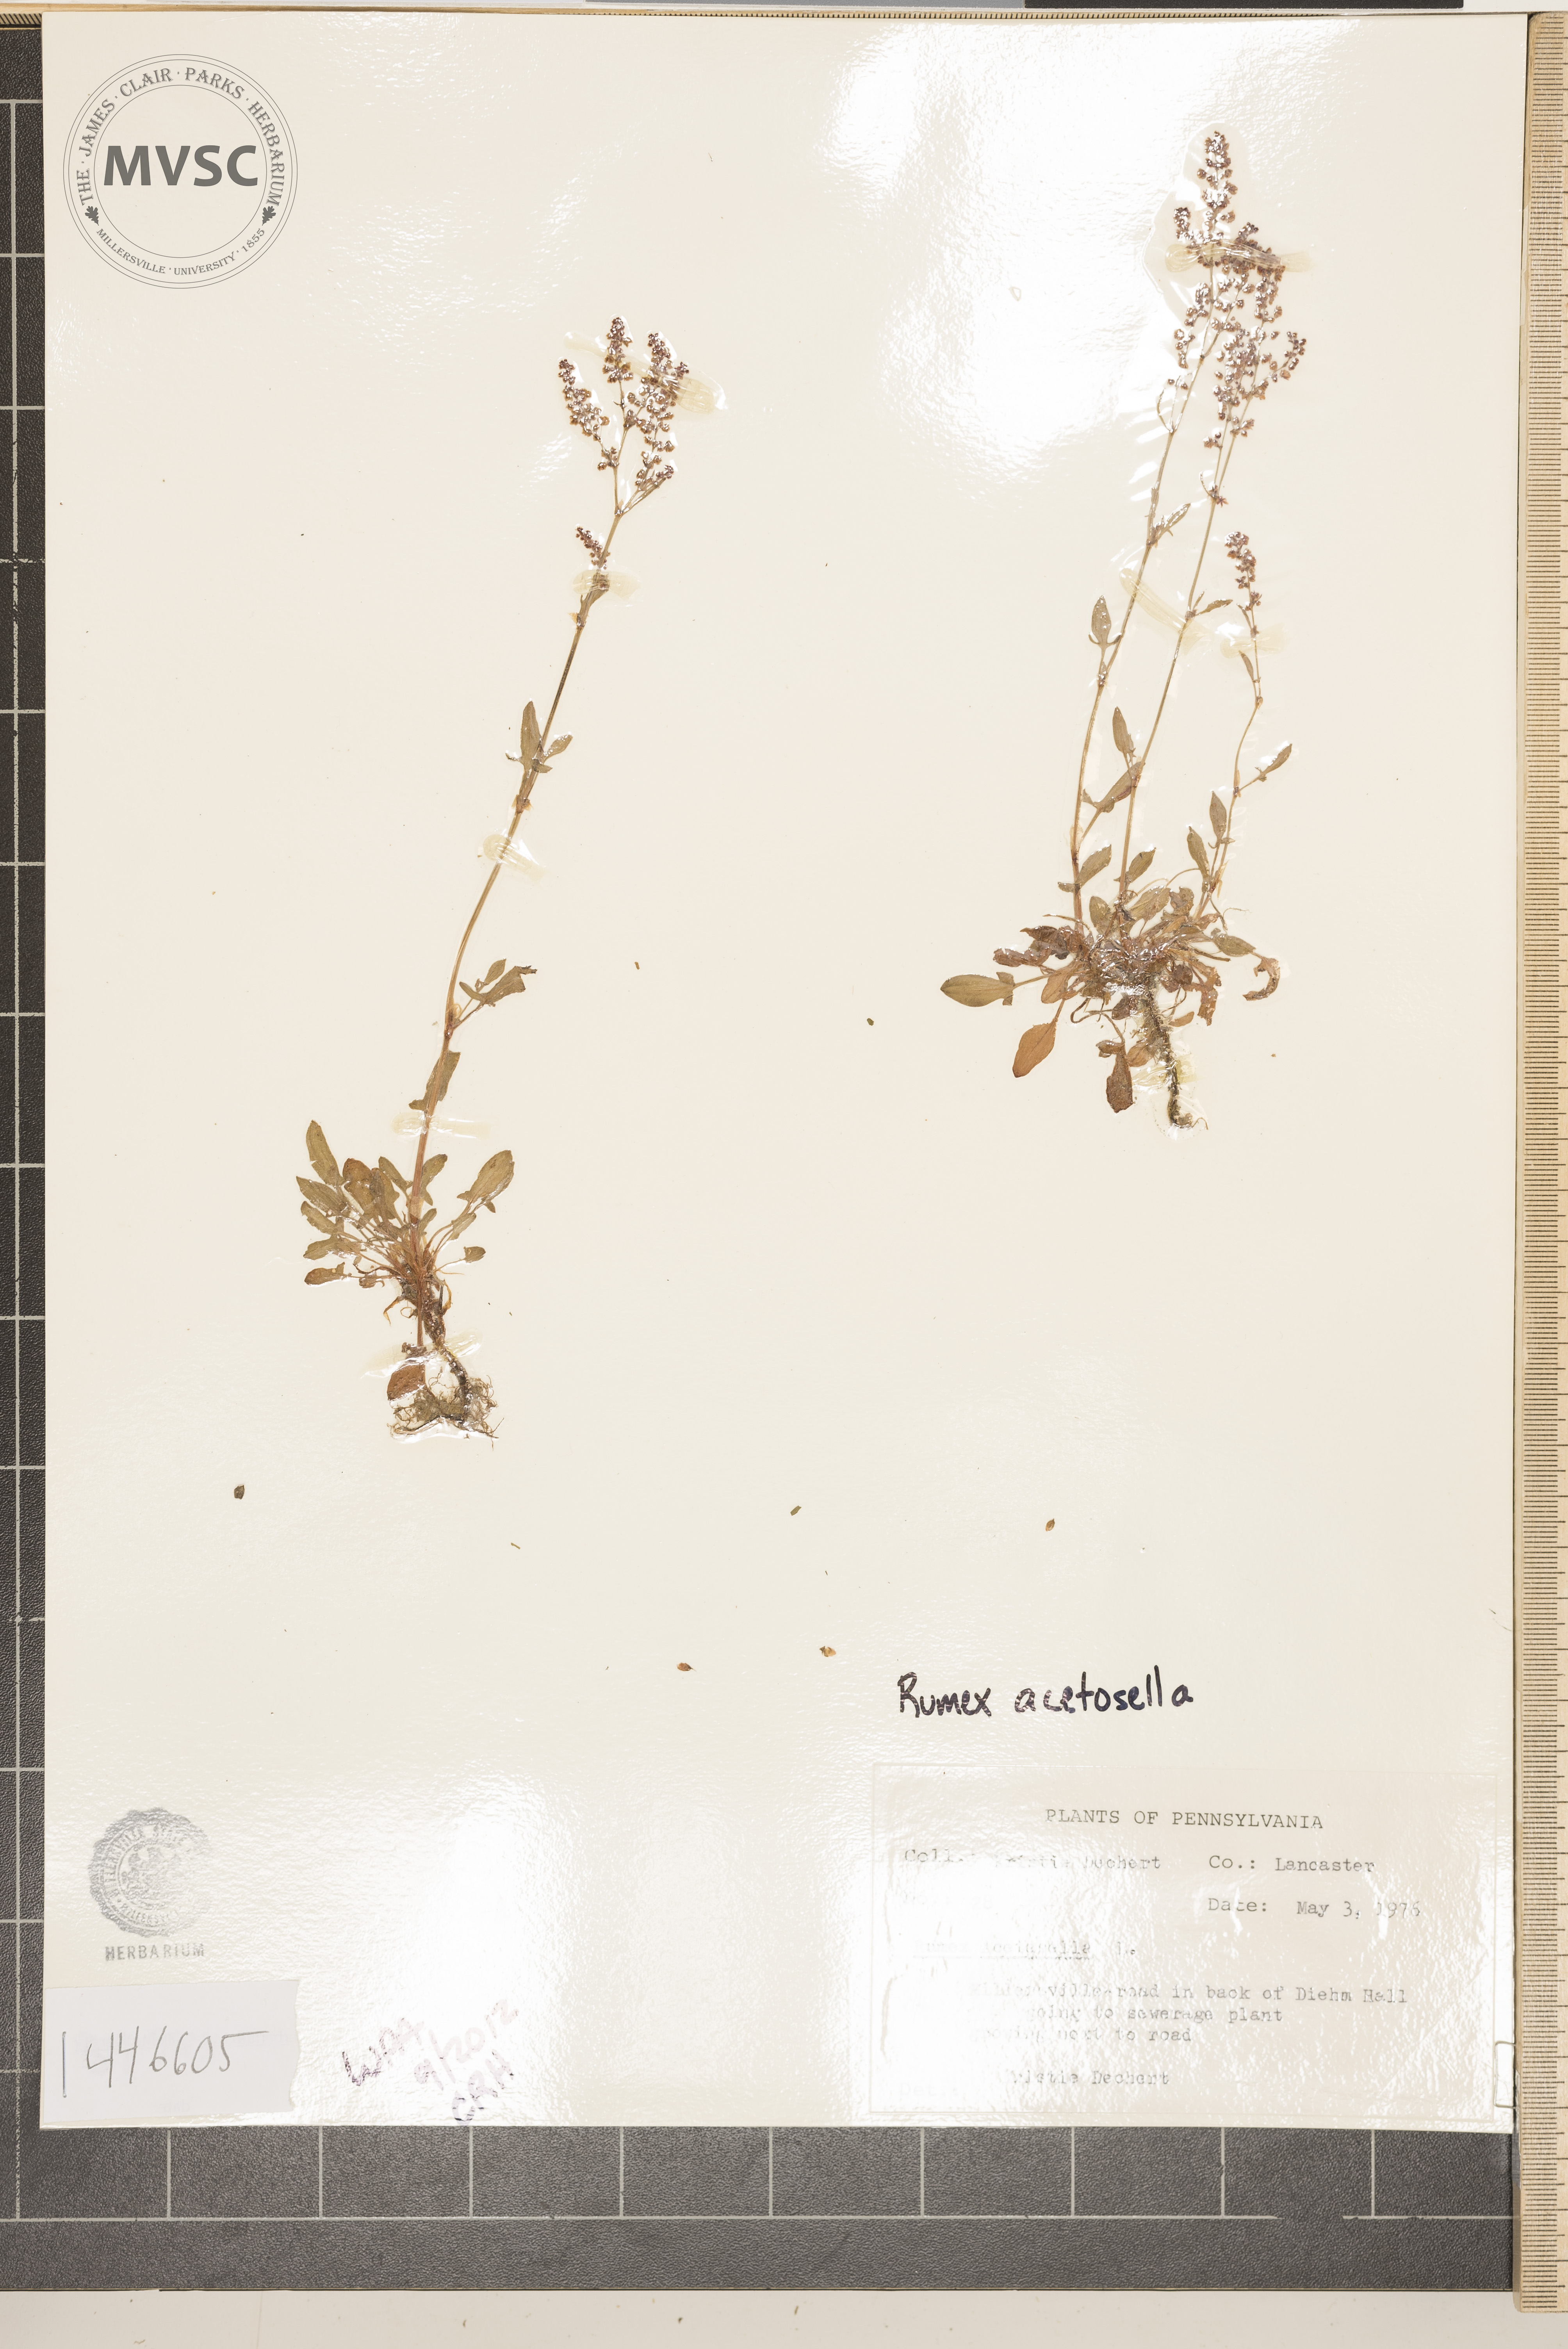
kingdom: Plantae
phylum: Tracheophyta
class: Magnoliopsida
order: Caryophyllales
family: Polygonaceae
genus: Rumex
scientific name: Rumex acetosella
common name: sheep sorrel
